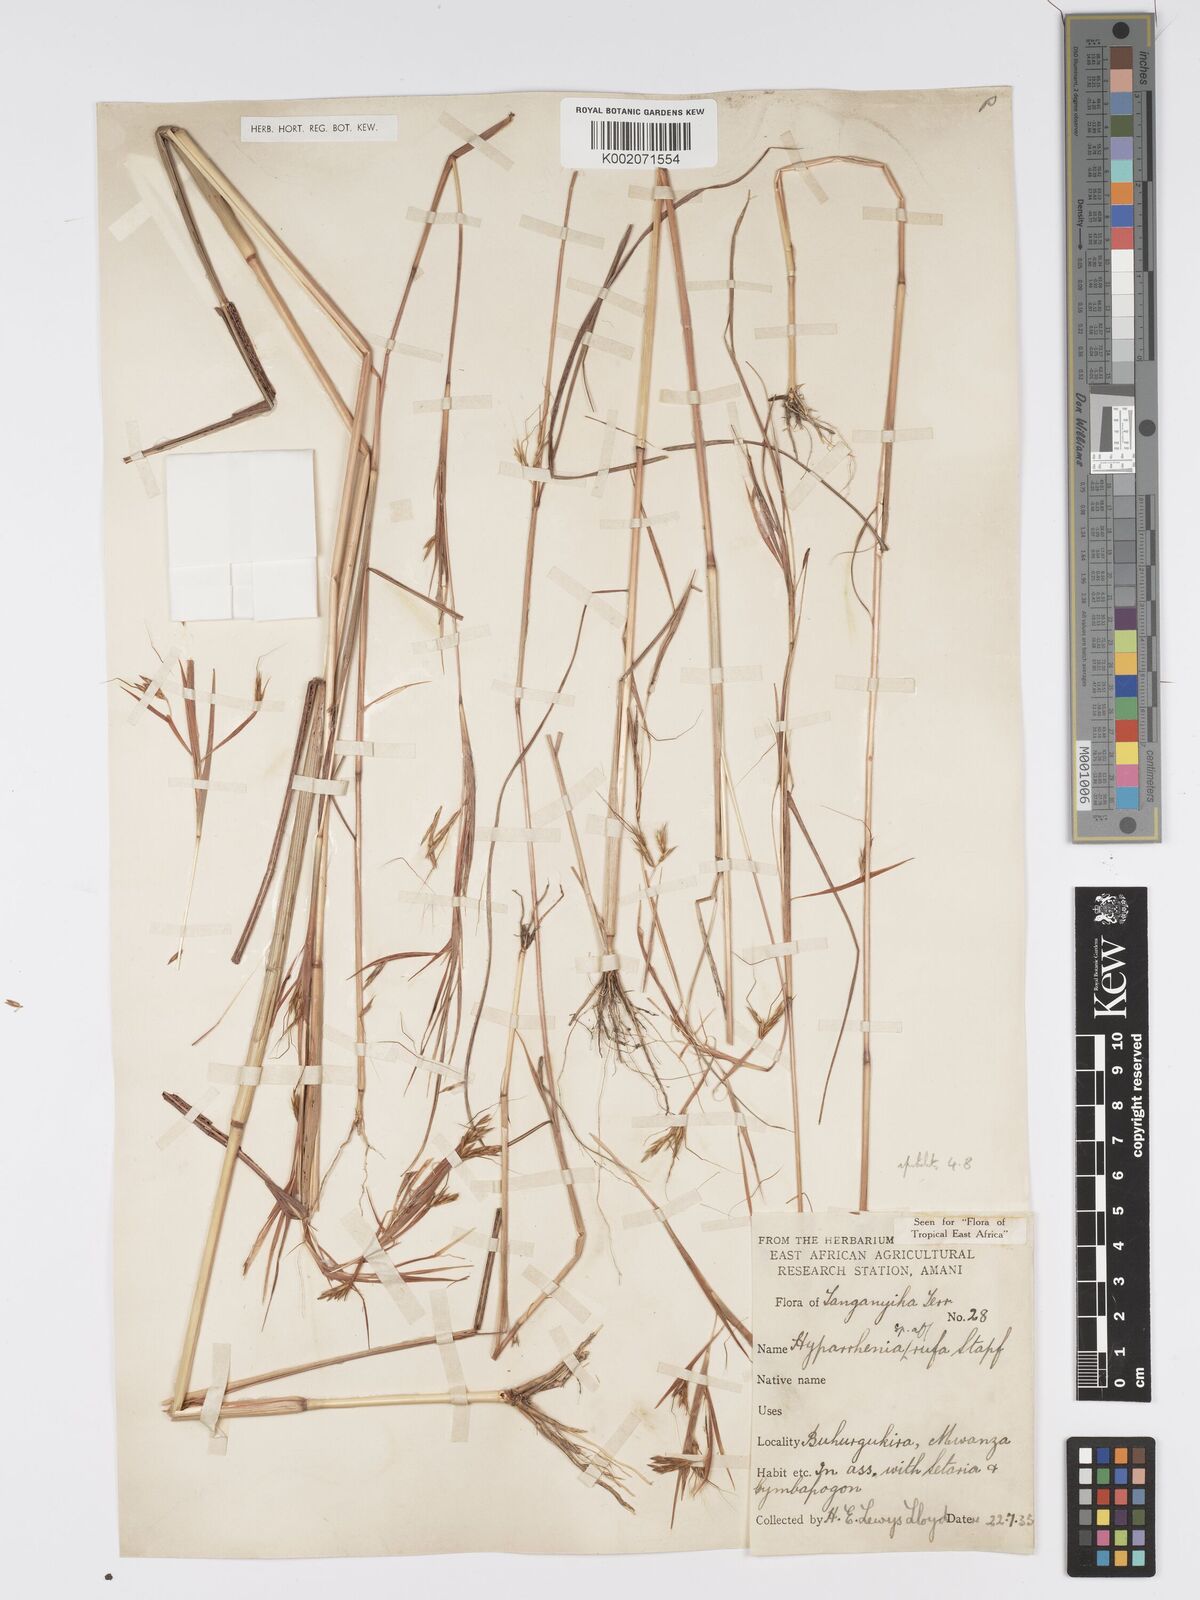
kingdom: Plantae
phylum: Tracheophyta
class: Liliopsida
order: Poales
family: Poaceae
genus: Hyparrhenia
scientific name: Hyparrhenia rufa
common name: Jaraguagrass
